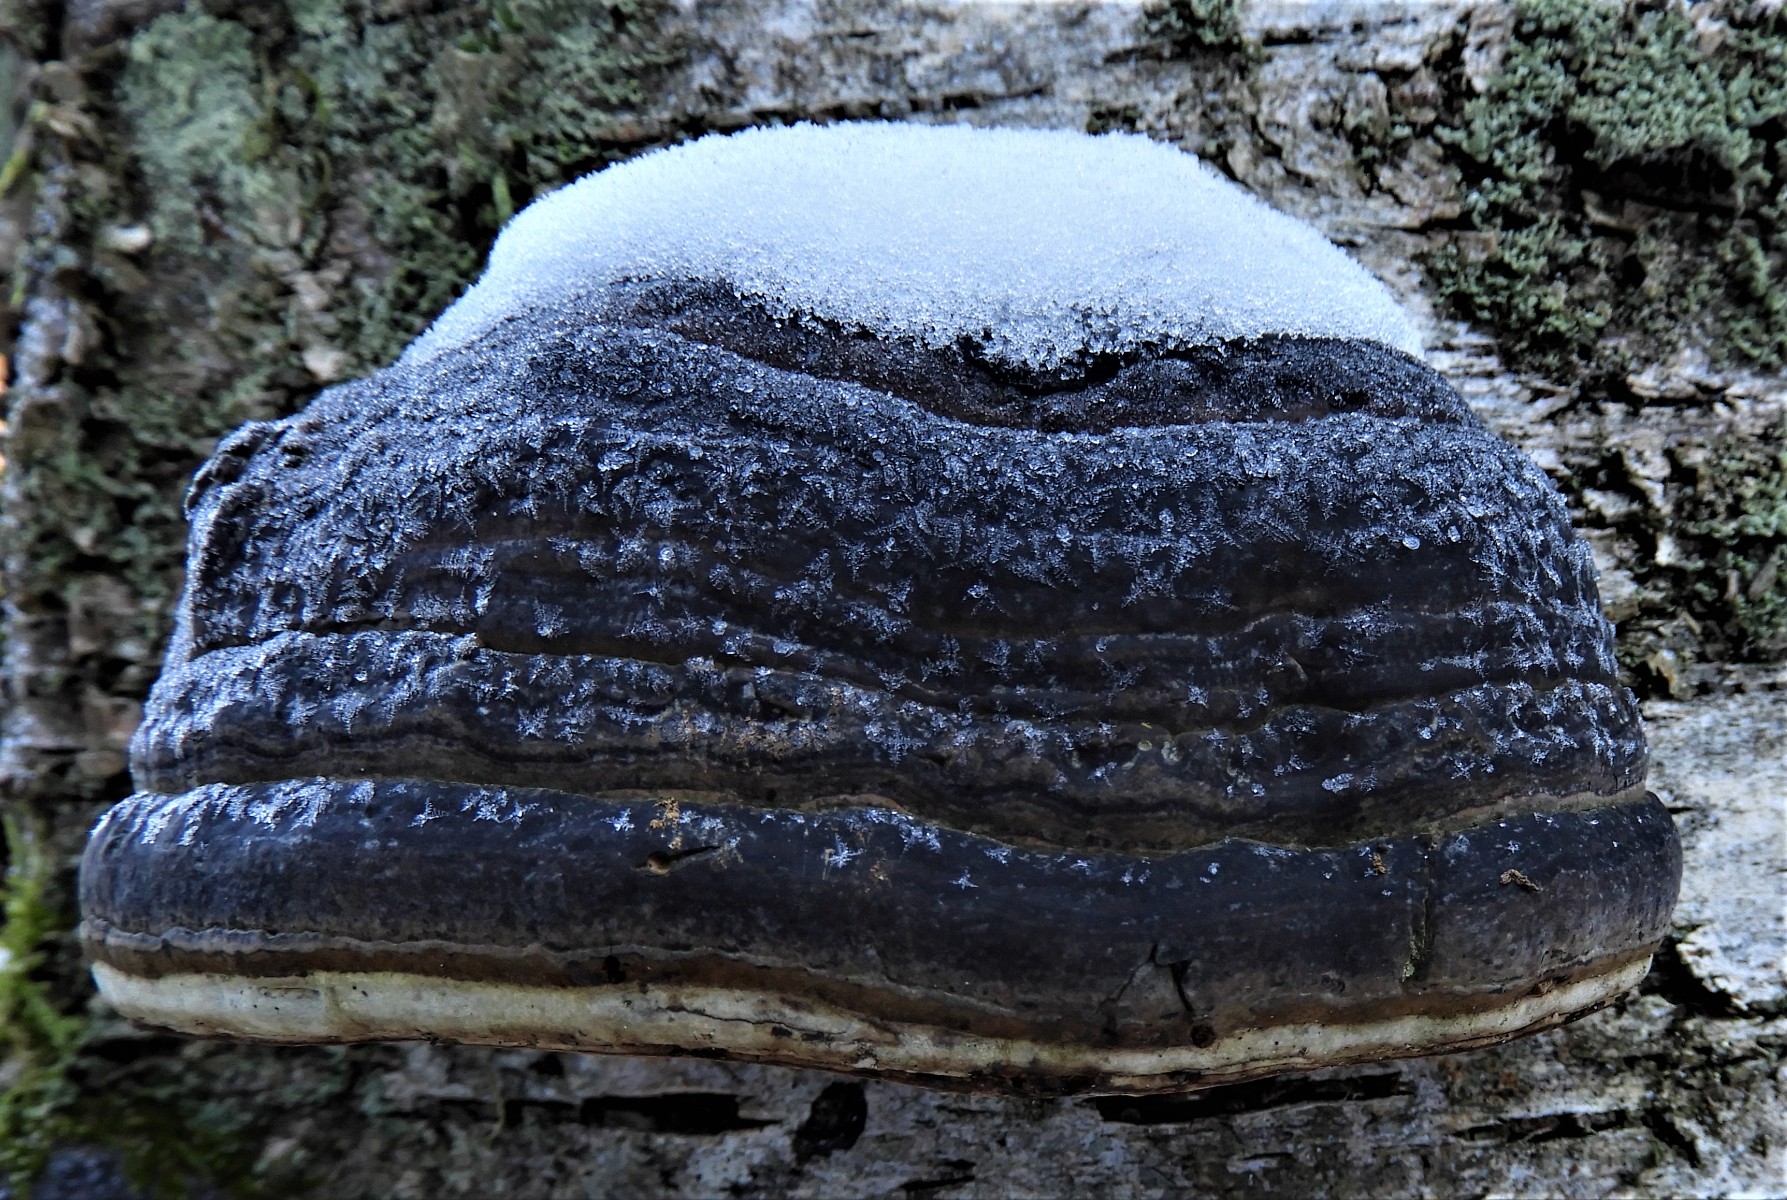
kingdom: Fungi
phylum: Basidiomycota
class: Agaricomycetes
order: Polyporales
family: Polyporaceae
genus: Fomes
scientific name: Fomes fomentarius
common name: tøndersvamp
